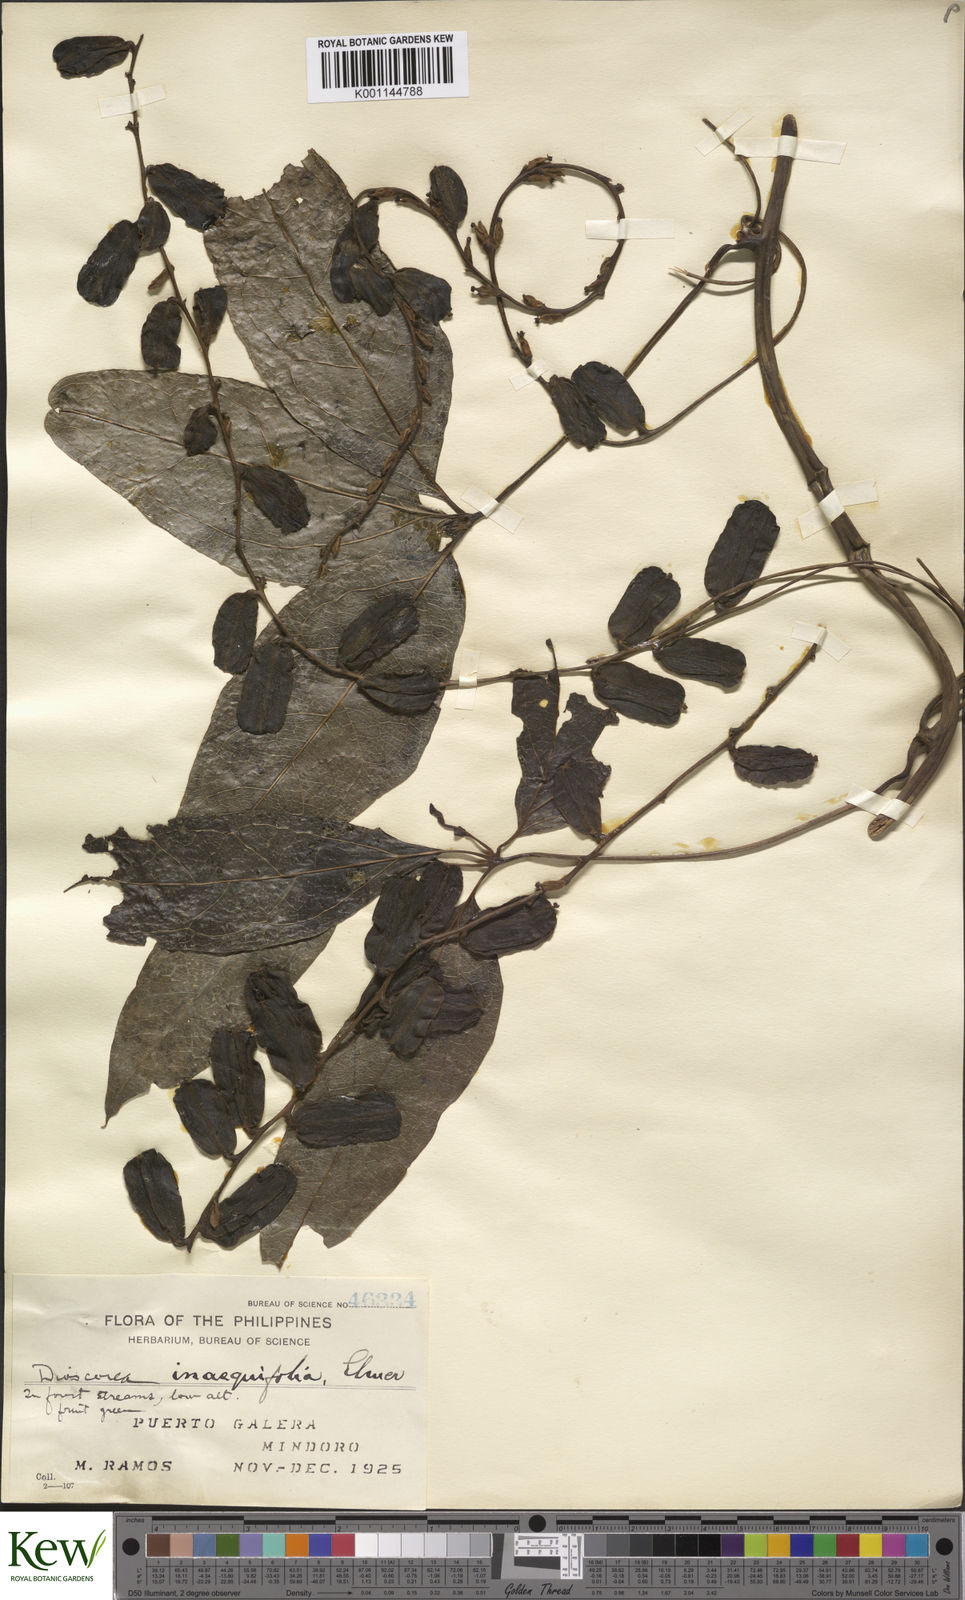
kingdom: Plantae
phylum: Tracheophyta
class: Liliopsida
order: Dioscoreales
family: Dioscoreaceae
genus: Dioscorea
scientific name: Dioscorea cumingii
